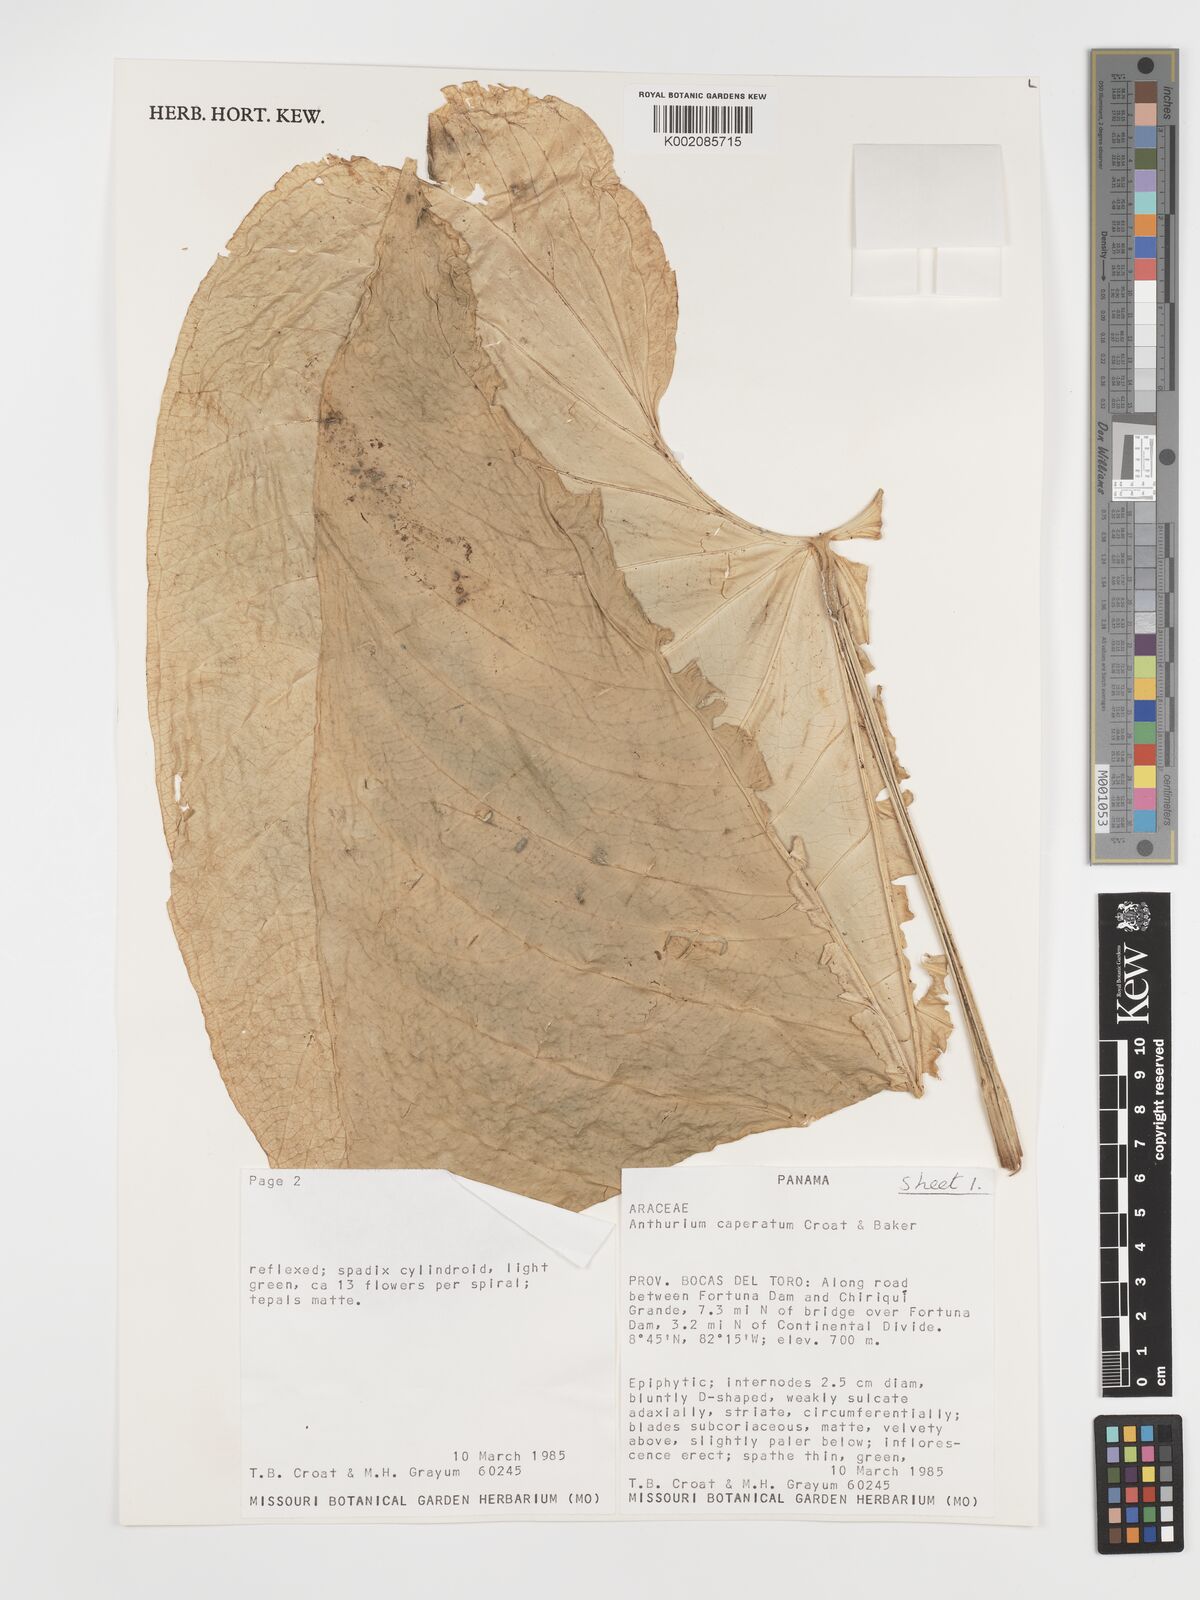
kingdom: Plantae
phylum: Tracheophyta
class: Liliopsida
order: Alismatales
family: Araceae
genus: Anthurium
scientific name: Anthurium caperatum
